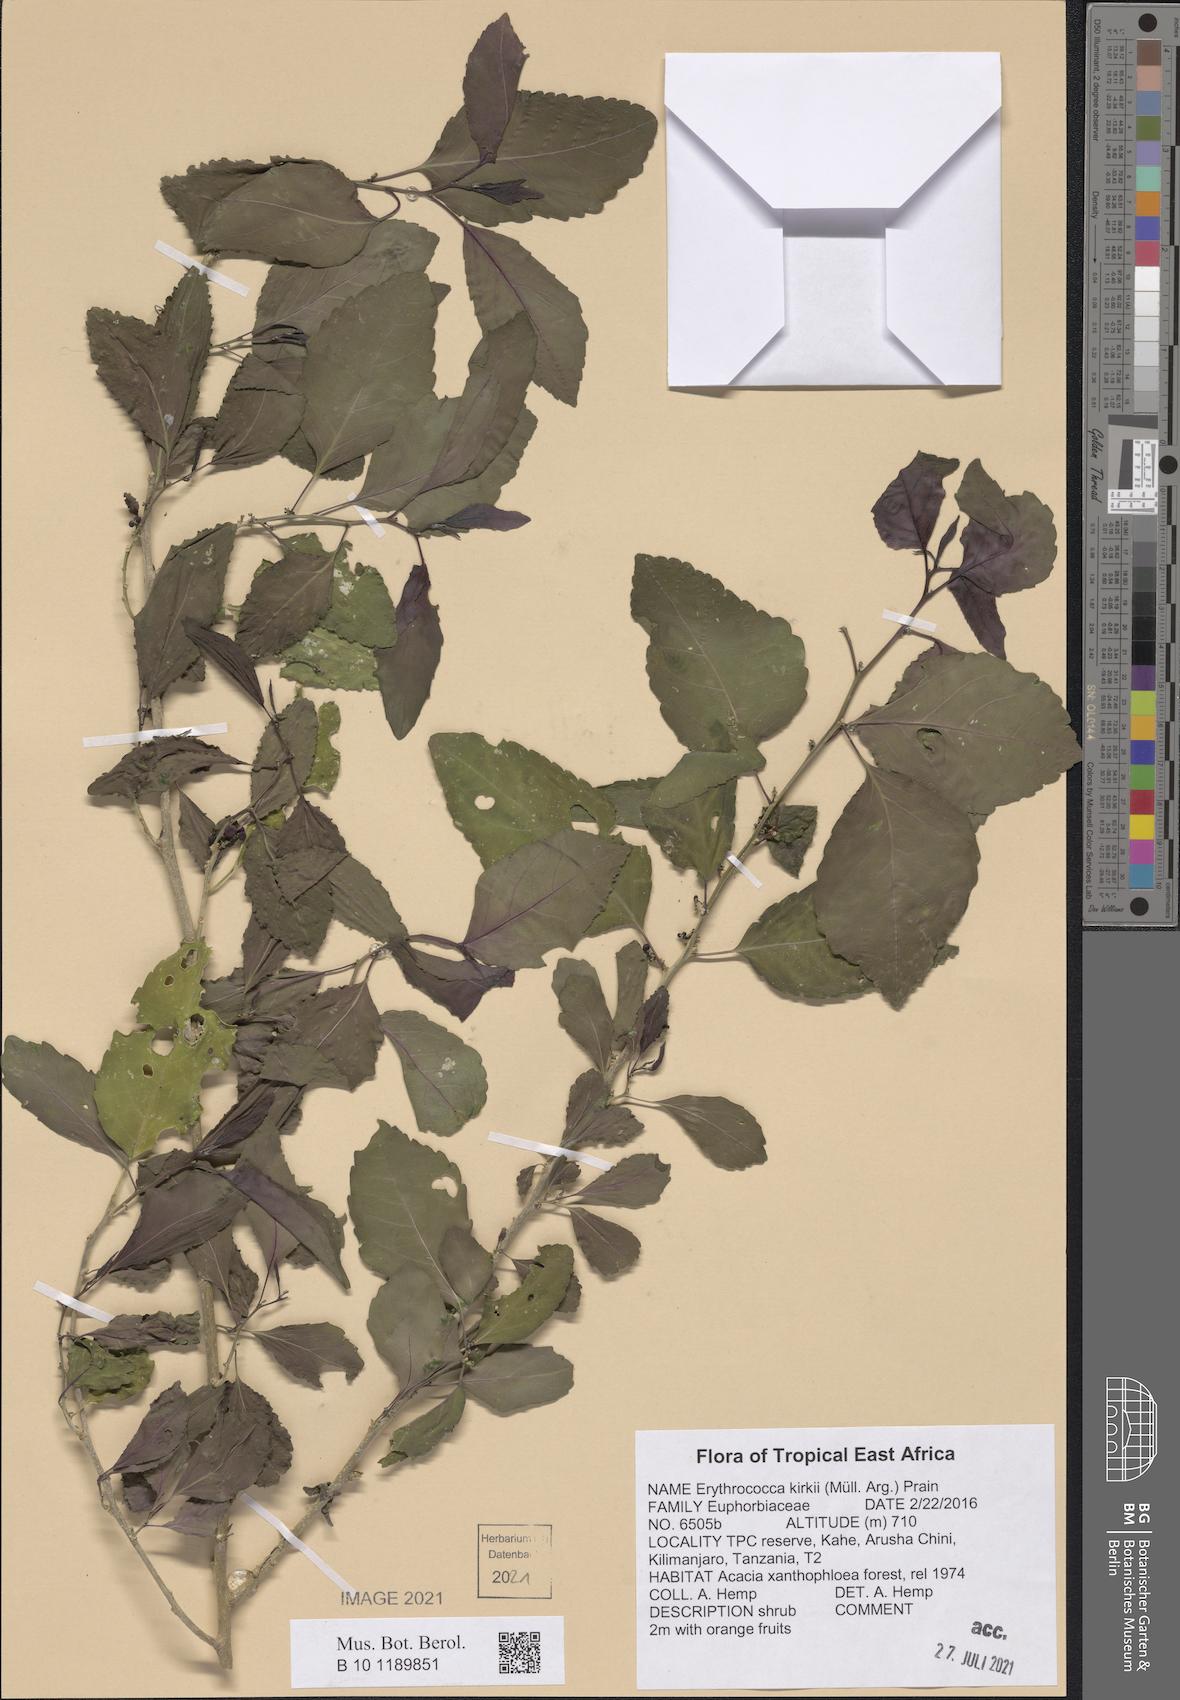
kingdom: Plantae
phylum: Tracheophyta
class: Magnoliopsida
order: Malpighiales
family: Euphorbiaceae
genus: Erythrococca
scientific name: Erythrococca kirkii
